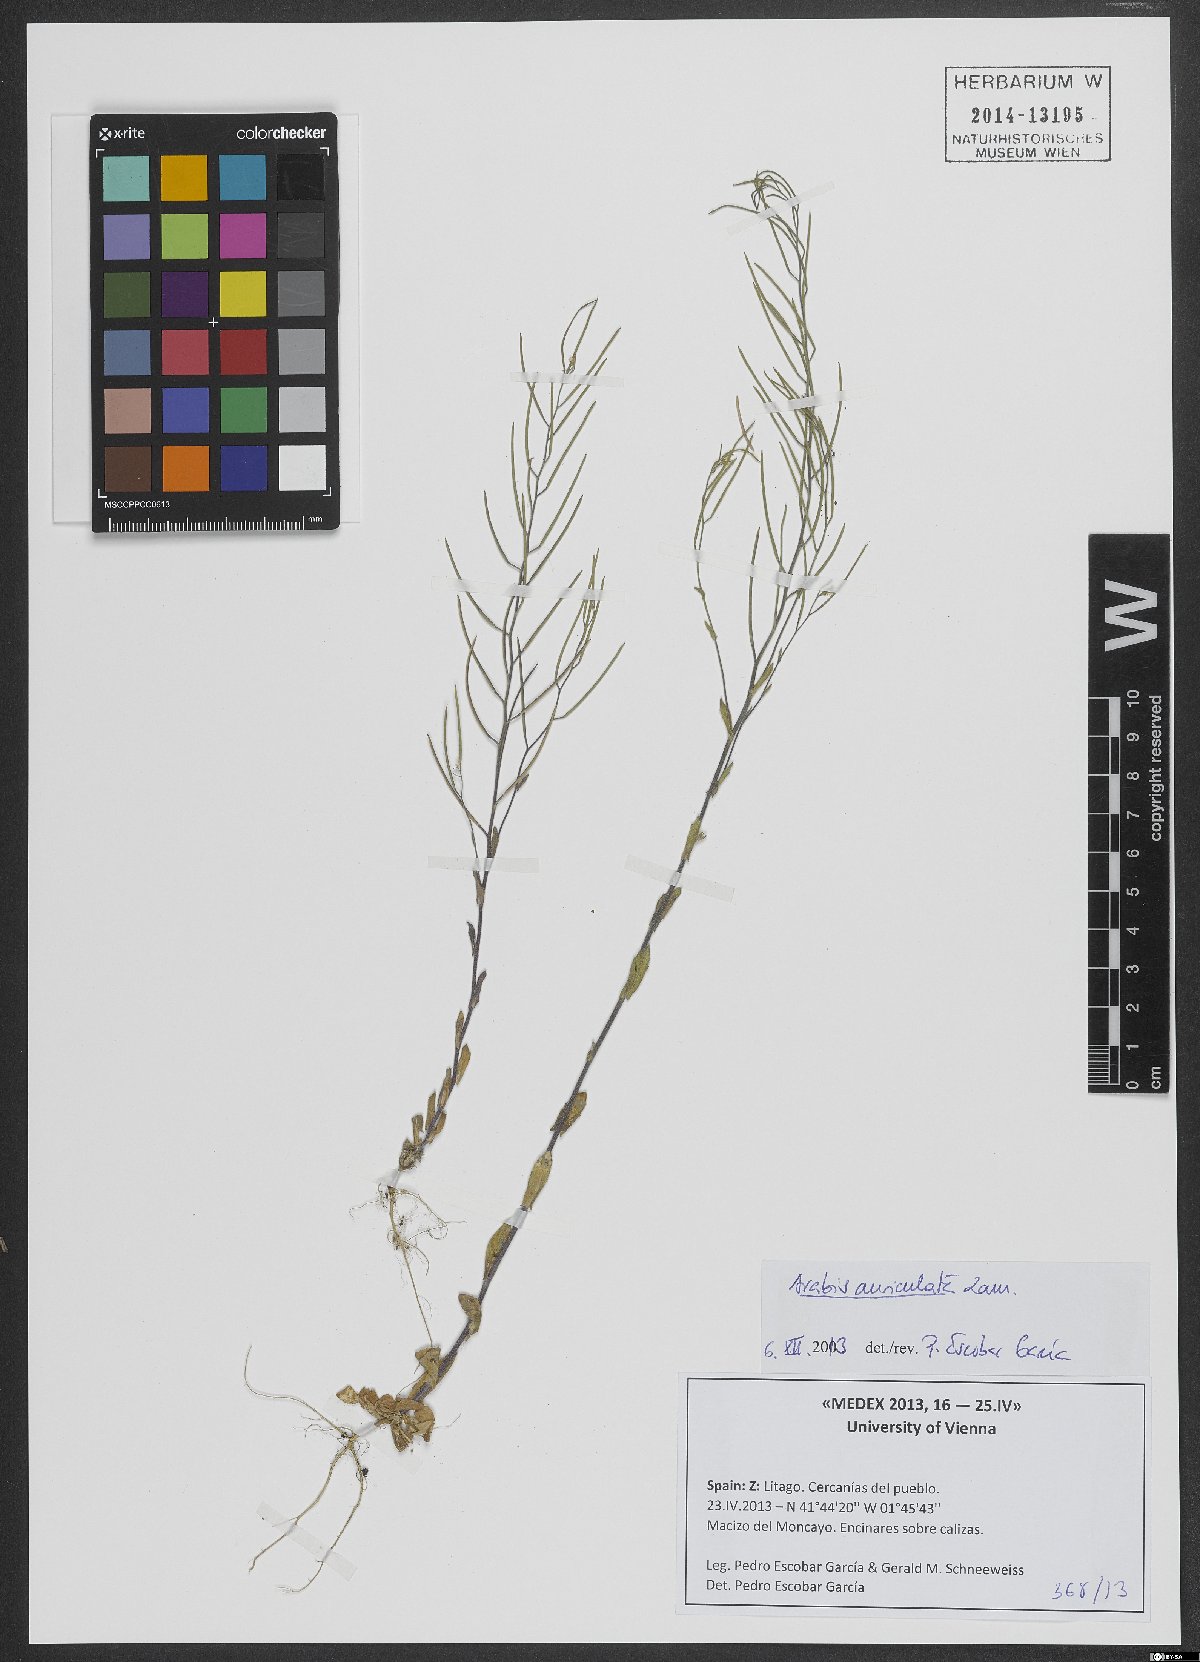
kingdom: Plantae
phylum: Tracheophyta
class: Magnoliopsida
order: Brassicales
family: Brassicaceae
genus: Arabis
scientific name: Arabis auriculata
